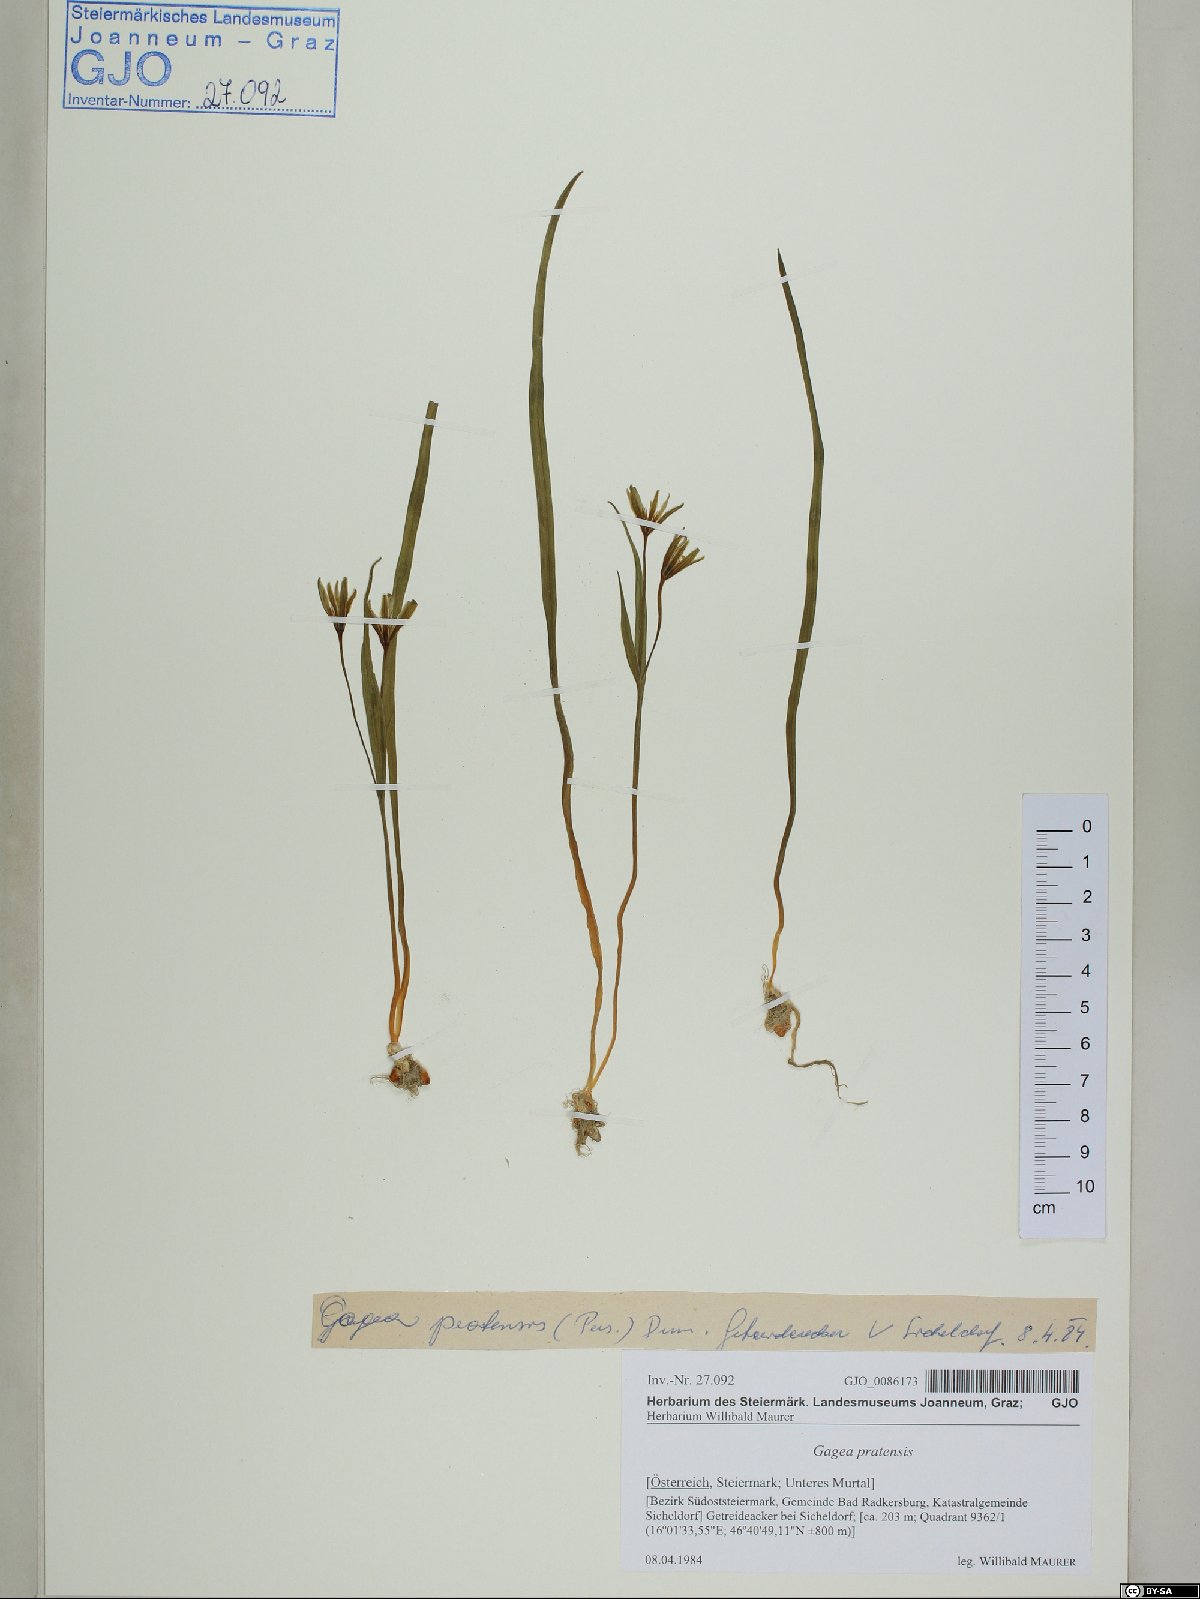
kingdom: Plantae
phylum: Tracheophyta
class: Liliopsida
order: Liliales
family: Liliaceae
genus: Gagea
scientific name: Gagea pratensis
